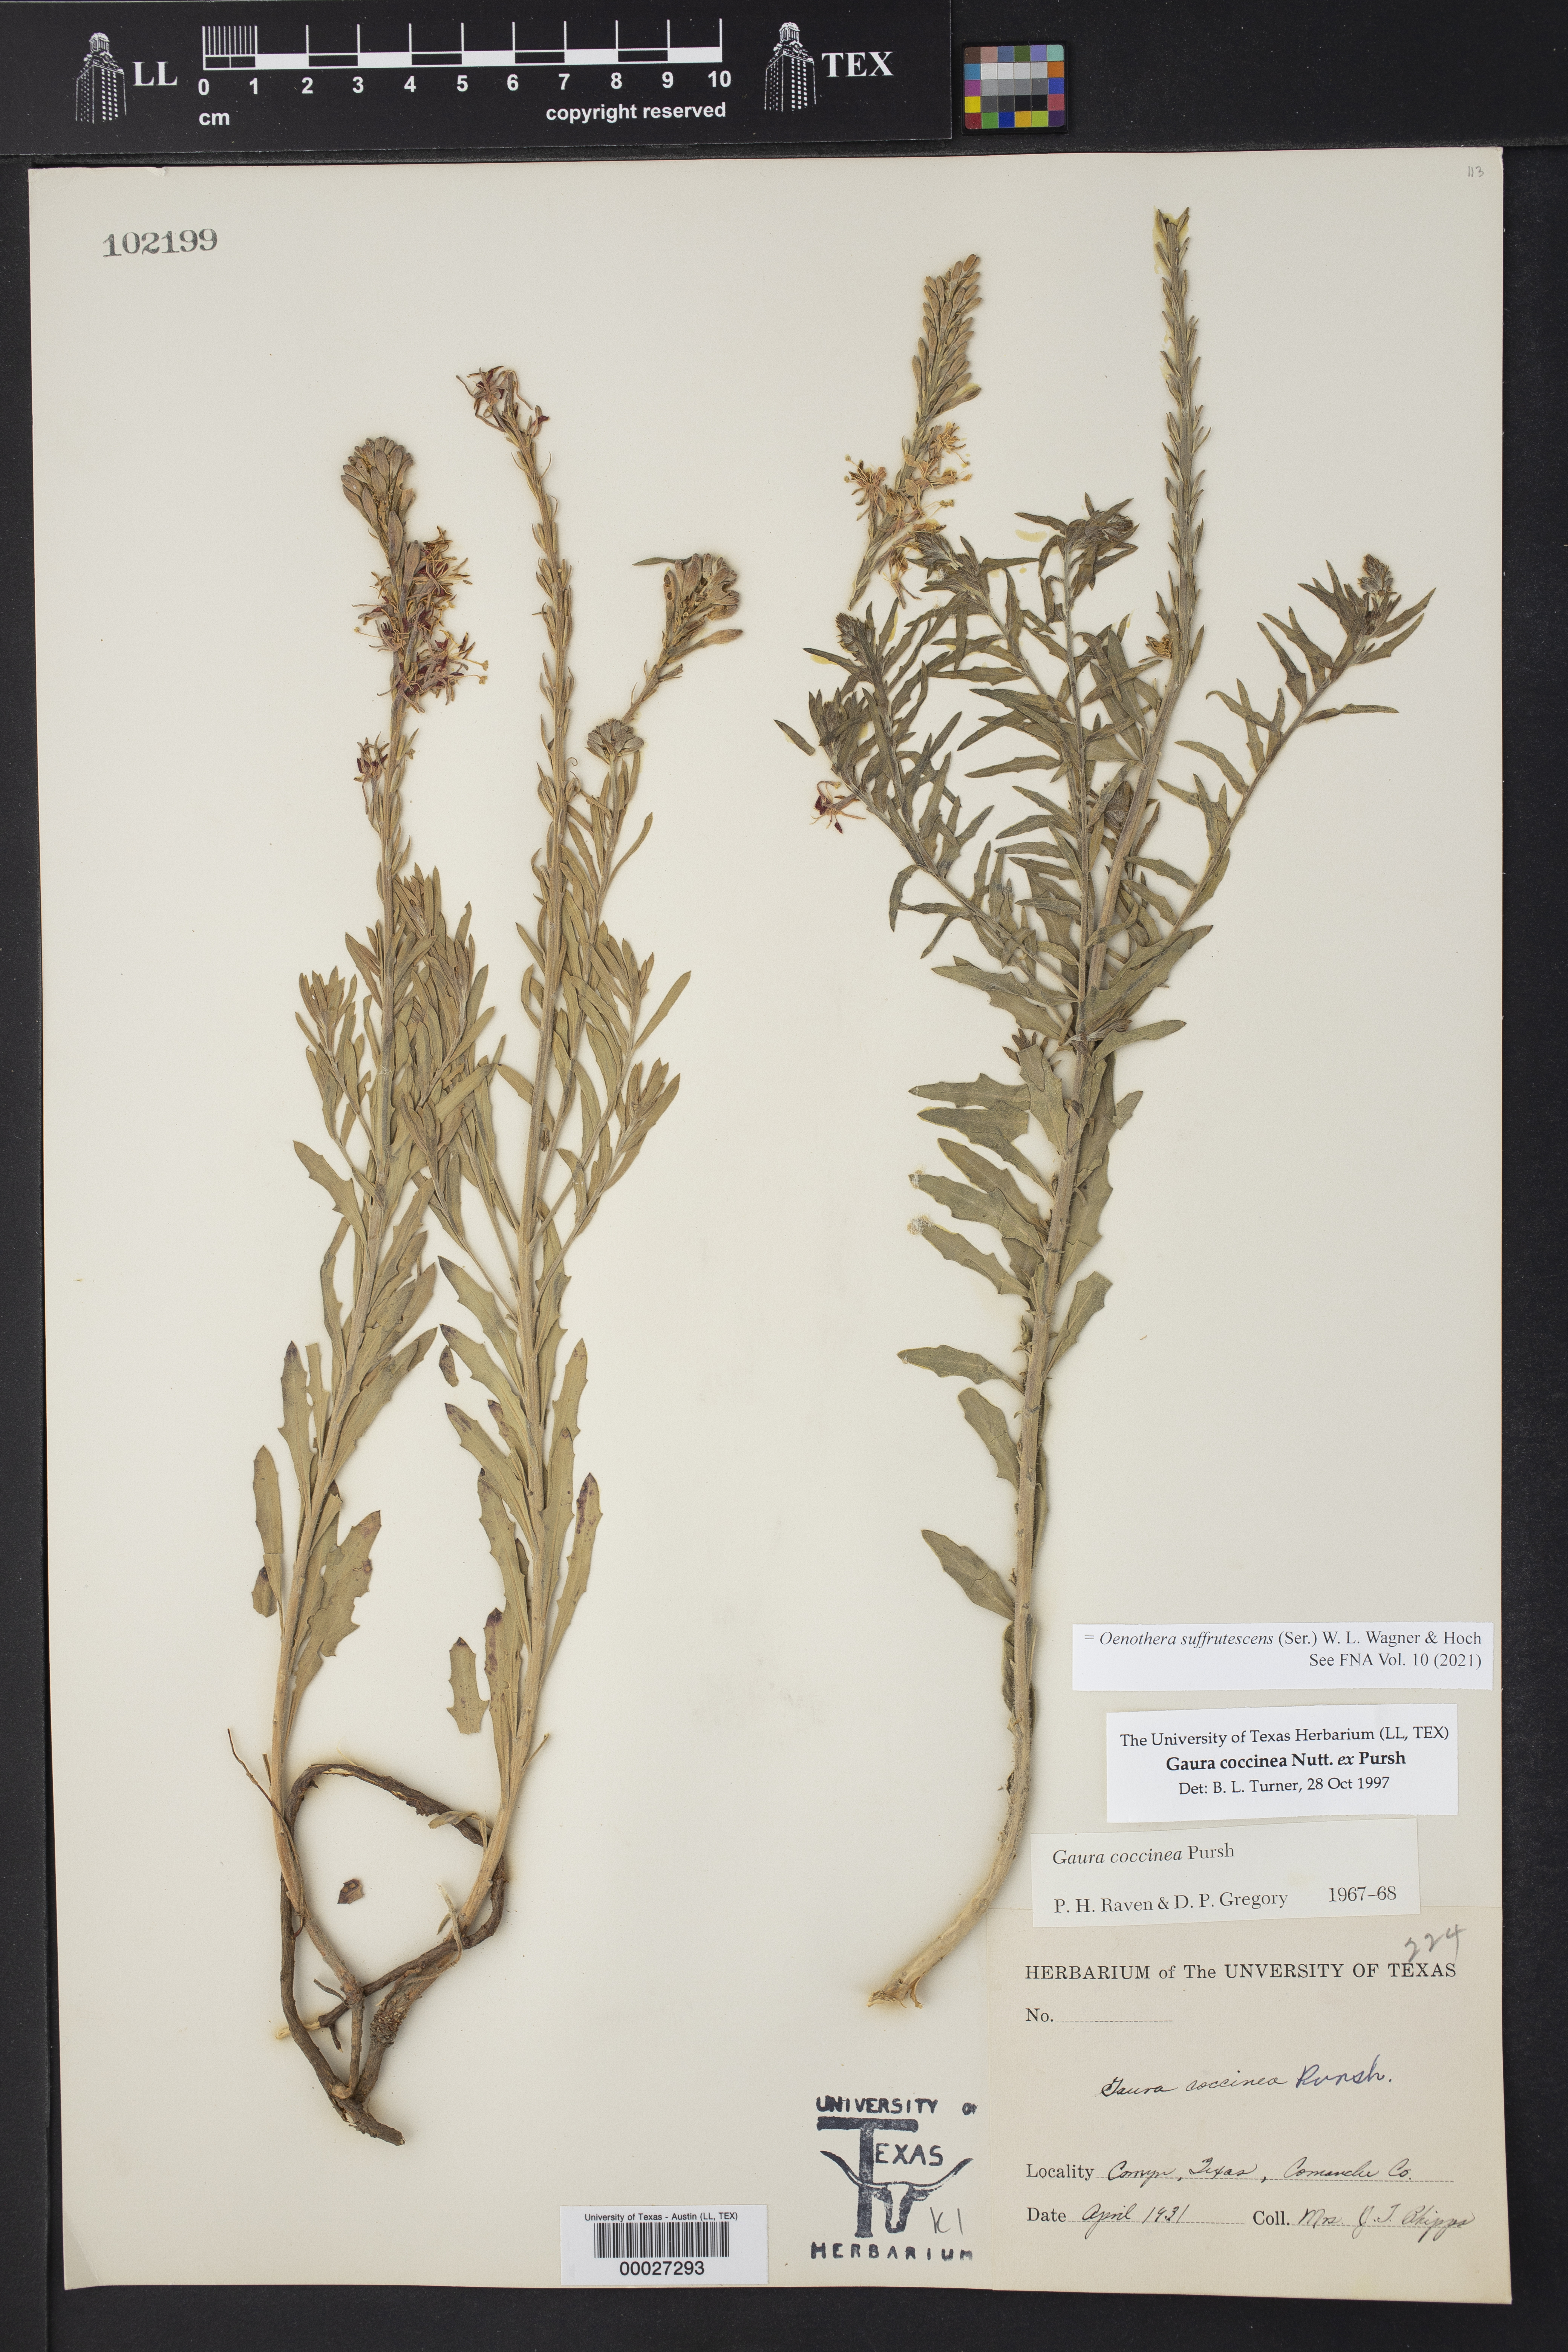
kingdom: Plantae
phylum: Tracheophyta
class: Magnoliopsida
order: Myrtales
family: Onagraceae
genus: Oenothera
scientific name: Oenothera suffrutescens
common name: Scarlet beeblossom
